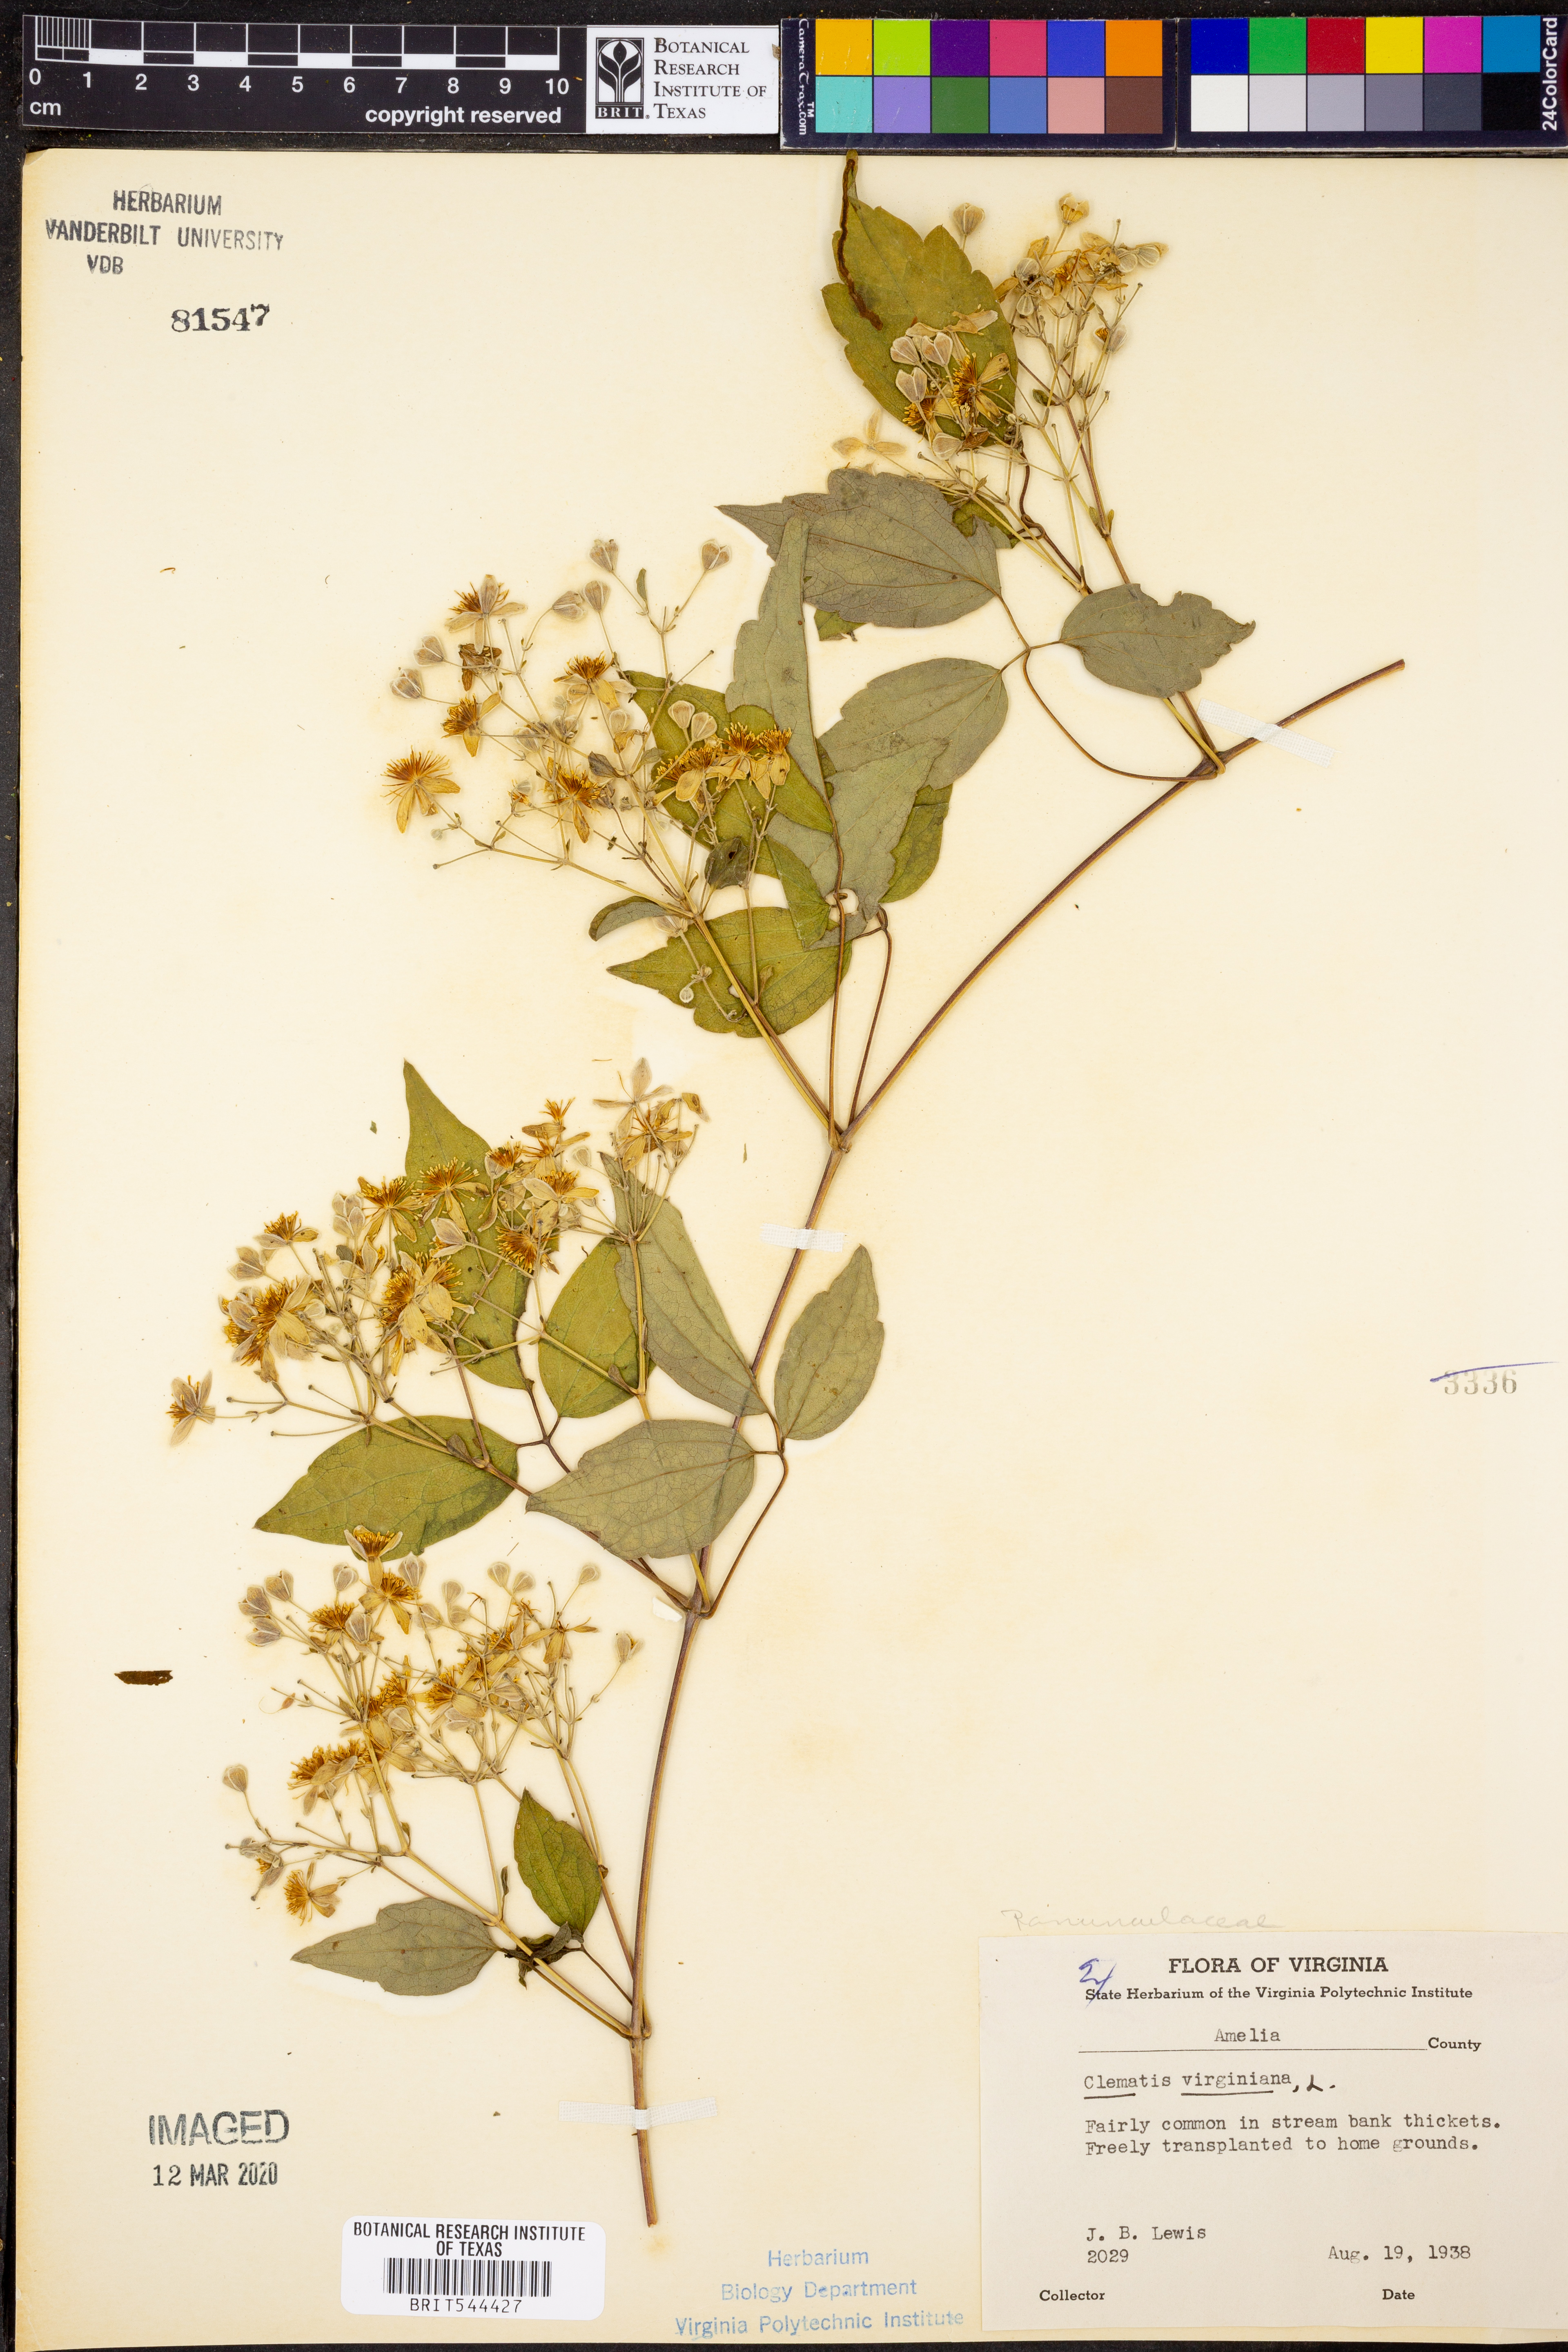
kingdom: Plantae
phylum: Tracheophyta
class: Magnoliopsida
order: Ranunculales
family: Ranunculaceae
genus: Clematis
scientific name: Clematis virginiana
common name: Virgin's-bower
